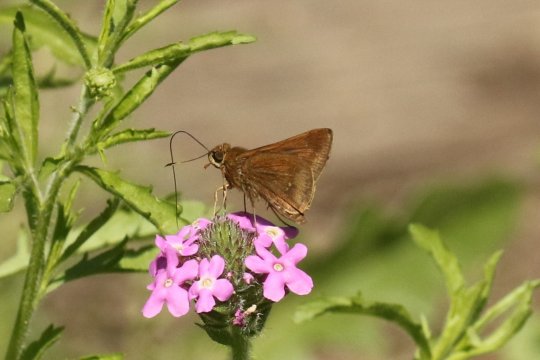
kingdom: Animalia
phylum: Arthropoda
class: Insecta
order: Lepidoptera
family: Hesperiidae
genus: Decinea
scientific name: Decinea percosius
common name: Double-dotted Skipper
